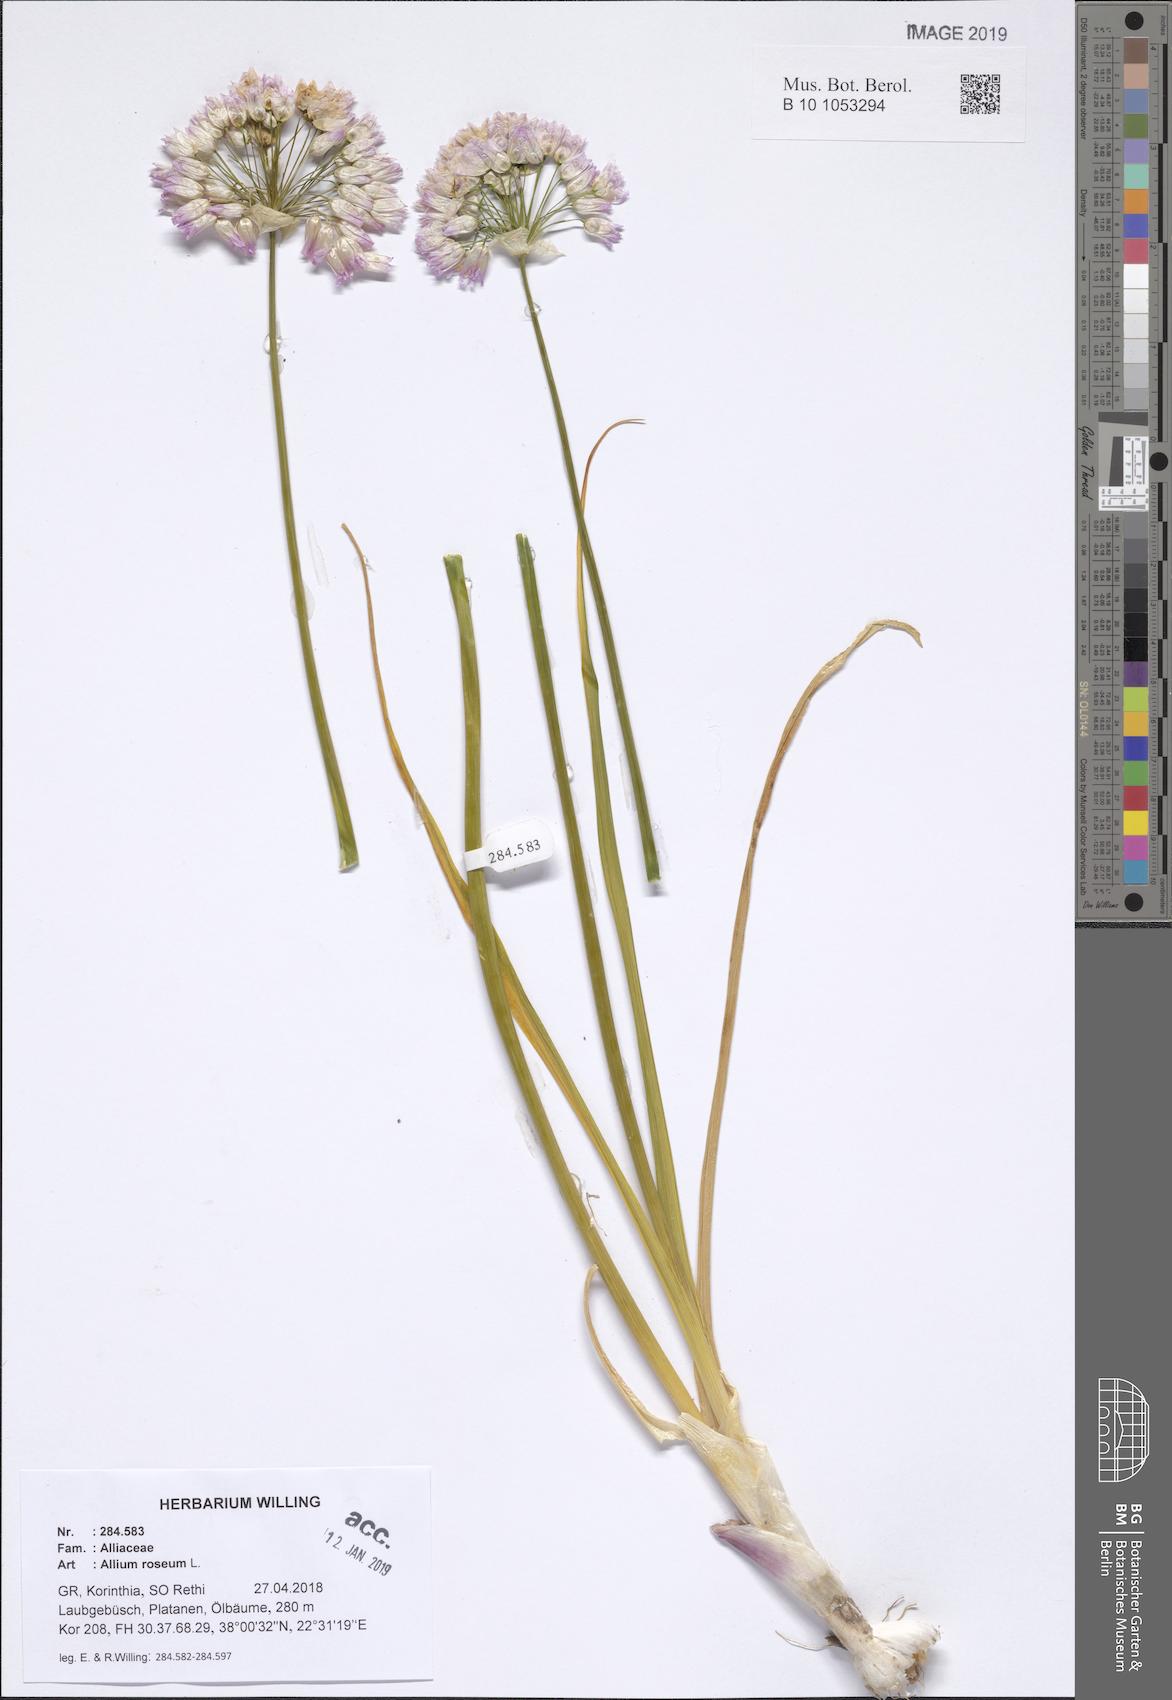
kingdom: Plantae
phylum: Tracheophyta
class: Liliopsida
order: Asparagales
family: Amaryllidaceae
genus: Allium
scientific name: Allium roseum
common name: Rosy garlic
